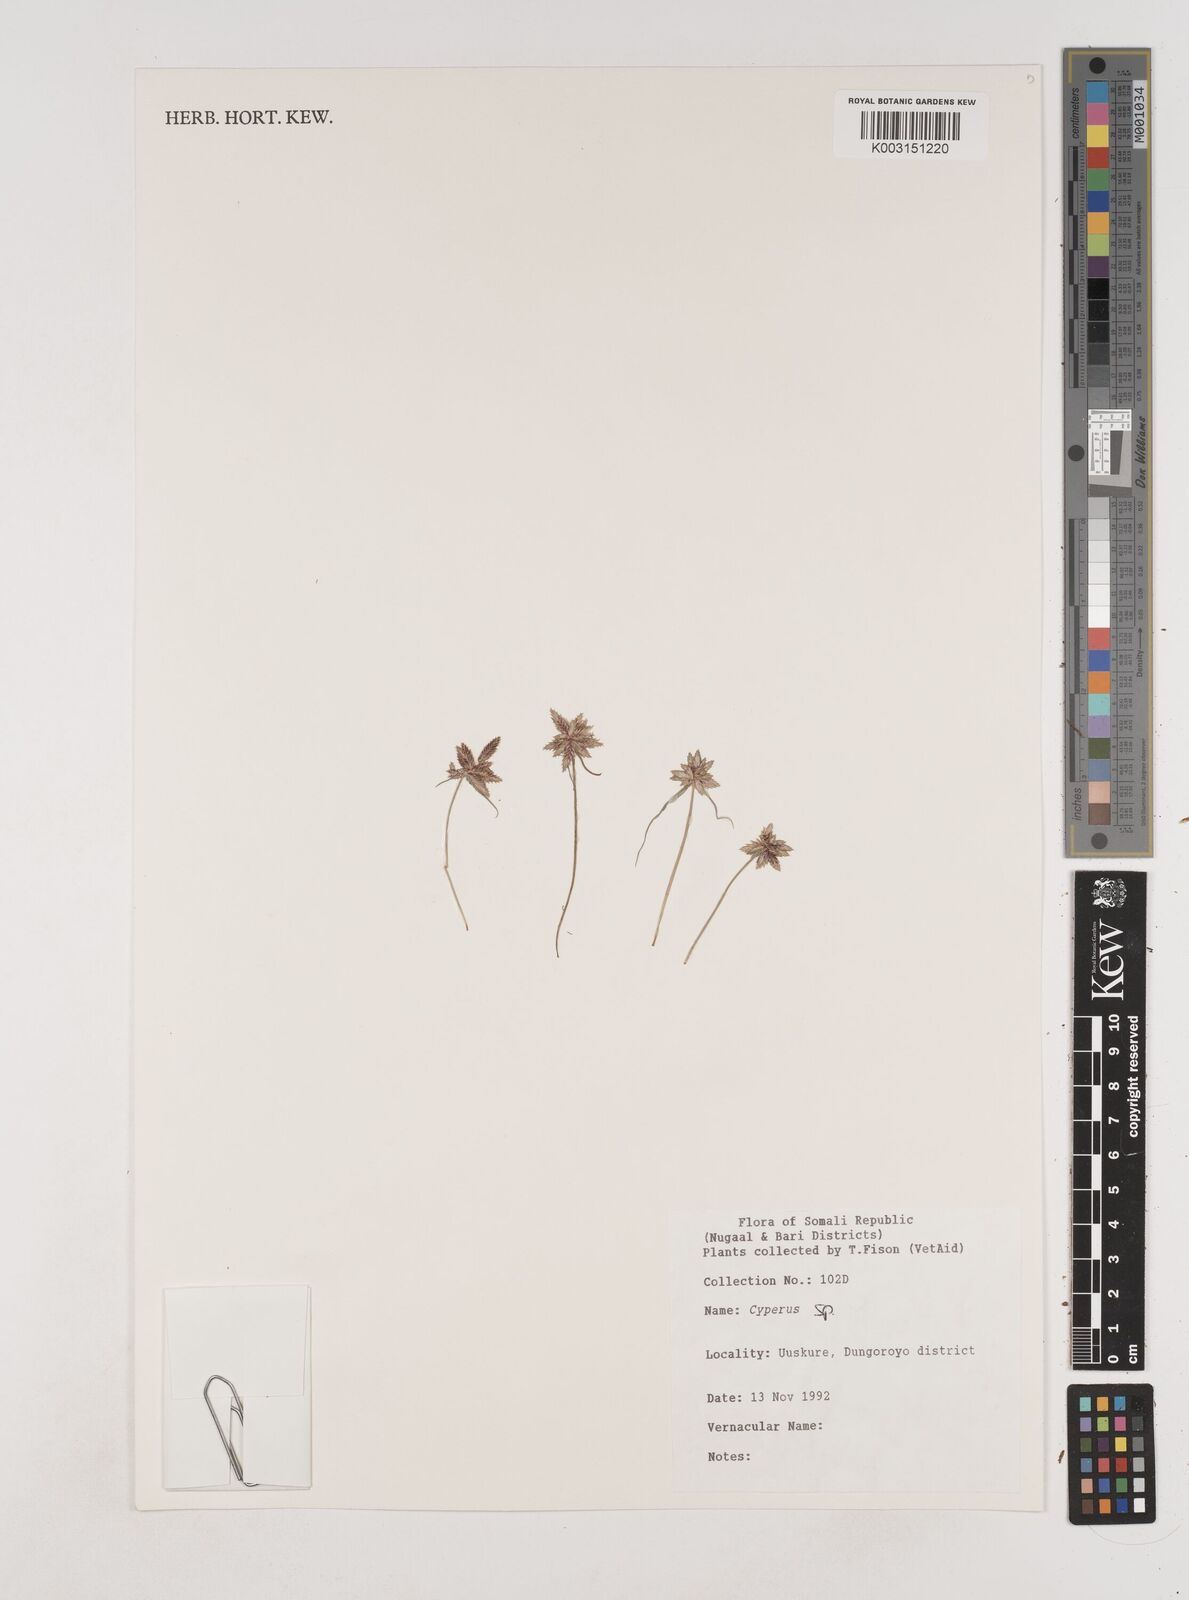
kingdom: Plantae
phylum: Tracheophyta
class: Liliopsida
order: Poales
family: Cyperaceae
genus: Cyperus
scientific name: Cyperus
